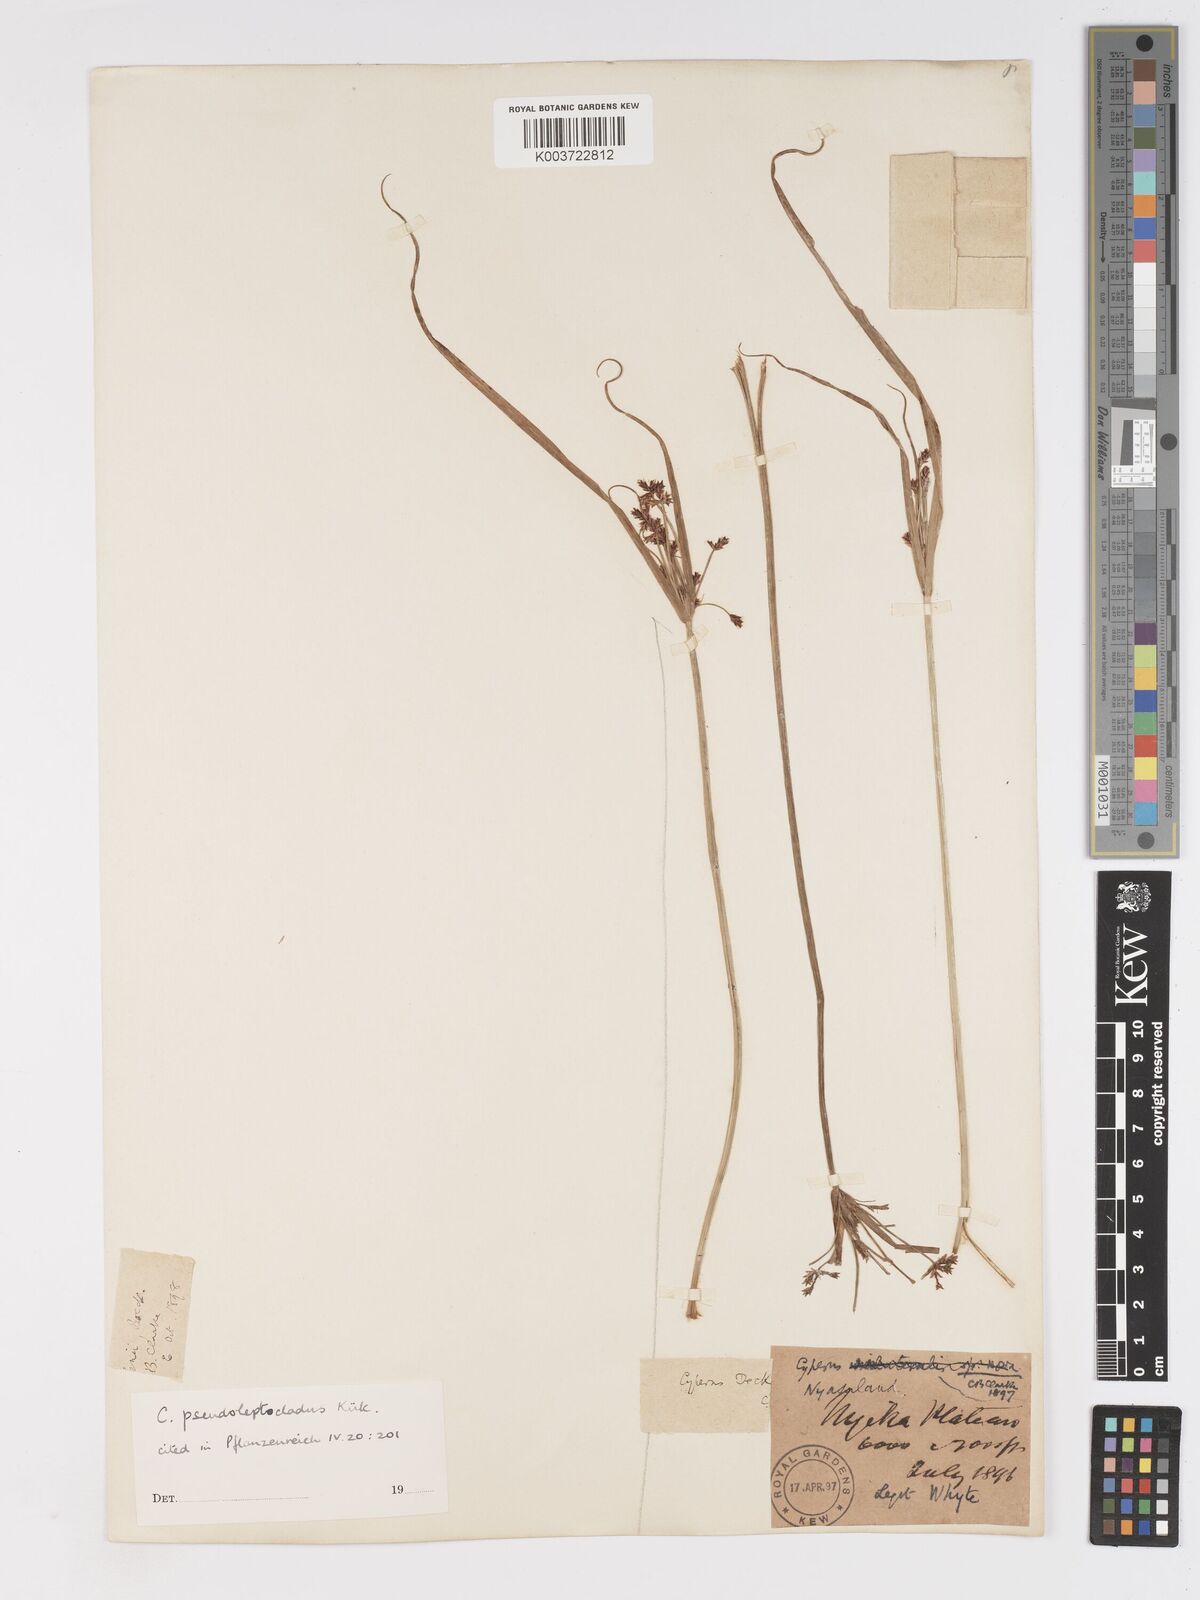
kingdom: Plantae
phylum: Tracheophyta
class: Liliopsida
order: Poales
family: Cyperaceae
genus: Cyperus
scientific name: Cyperus glaucophyllus
